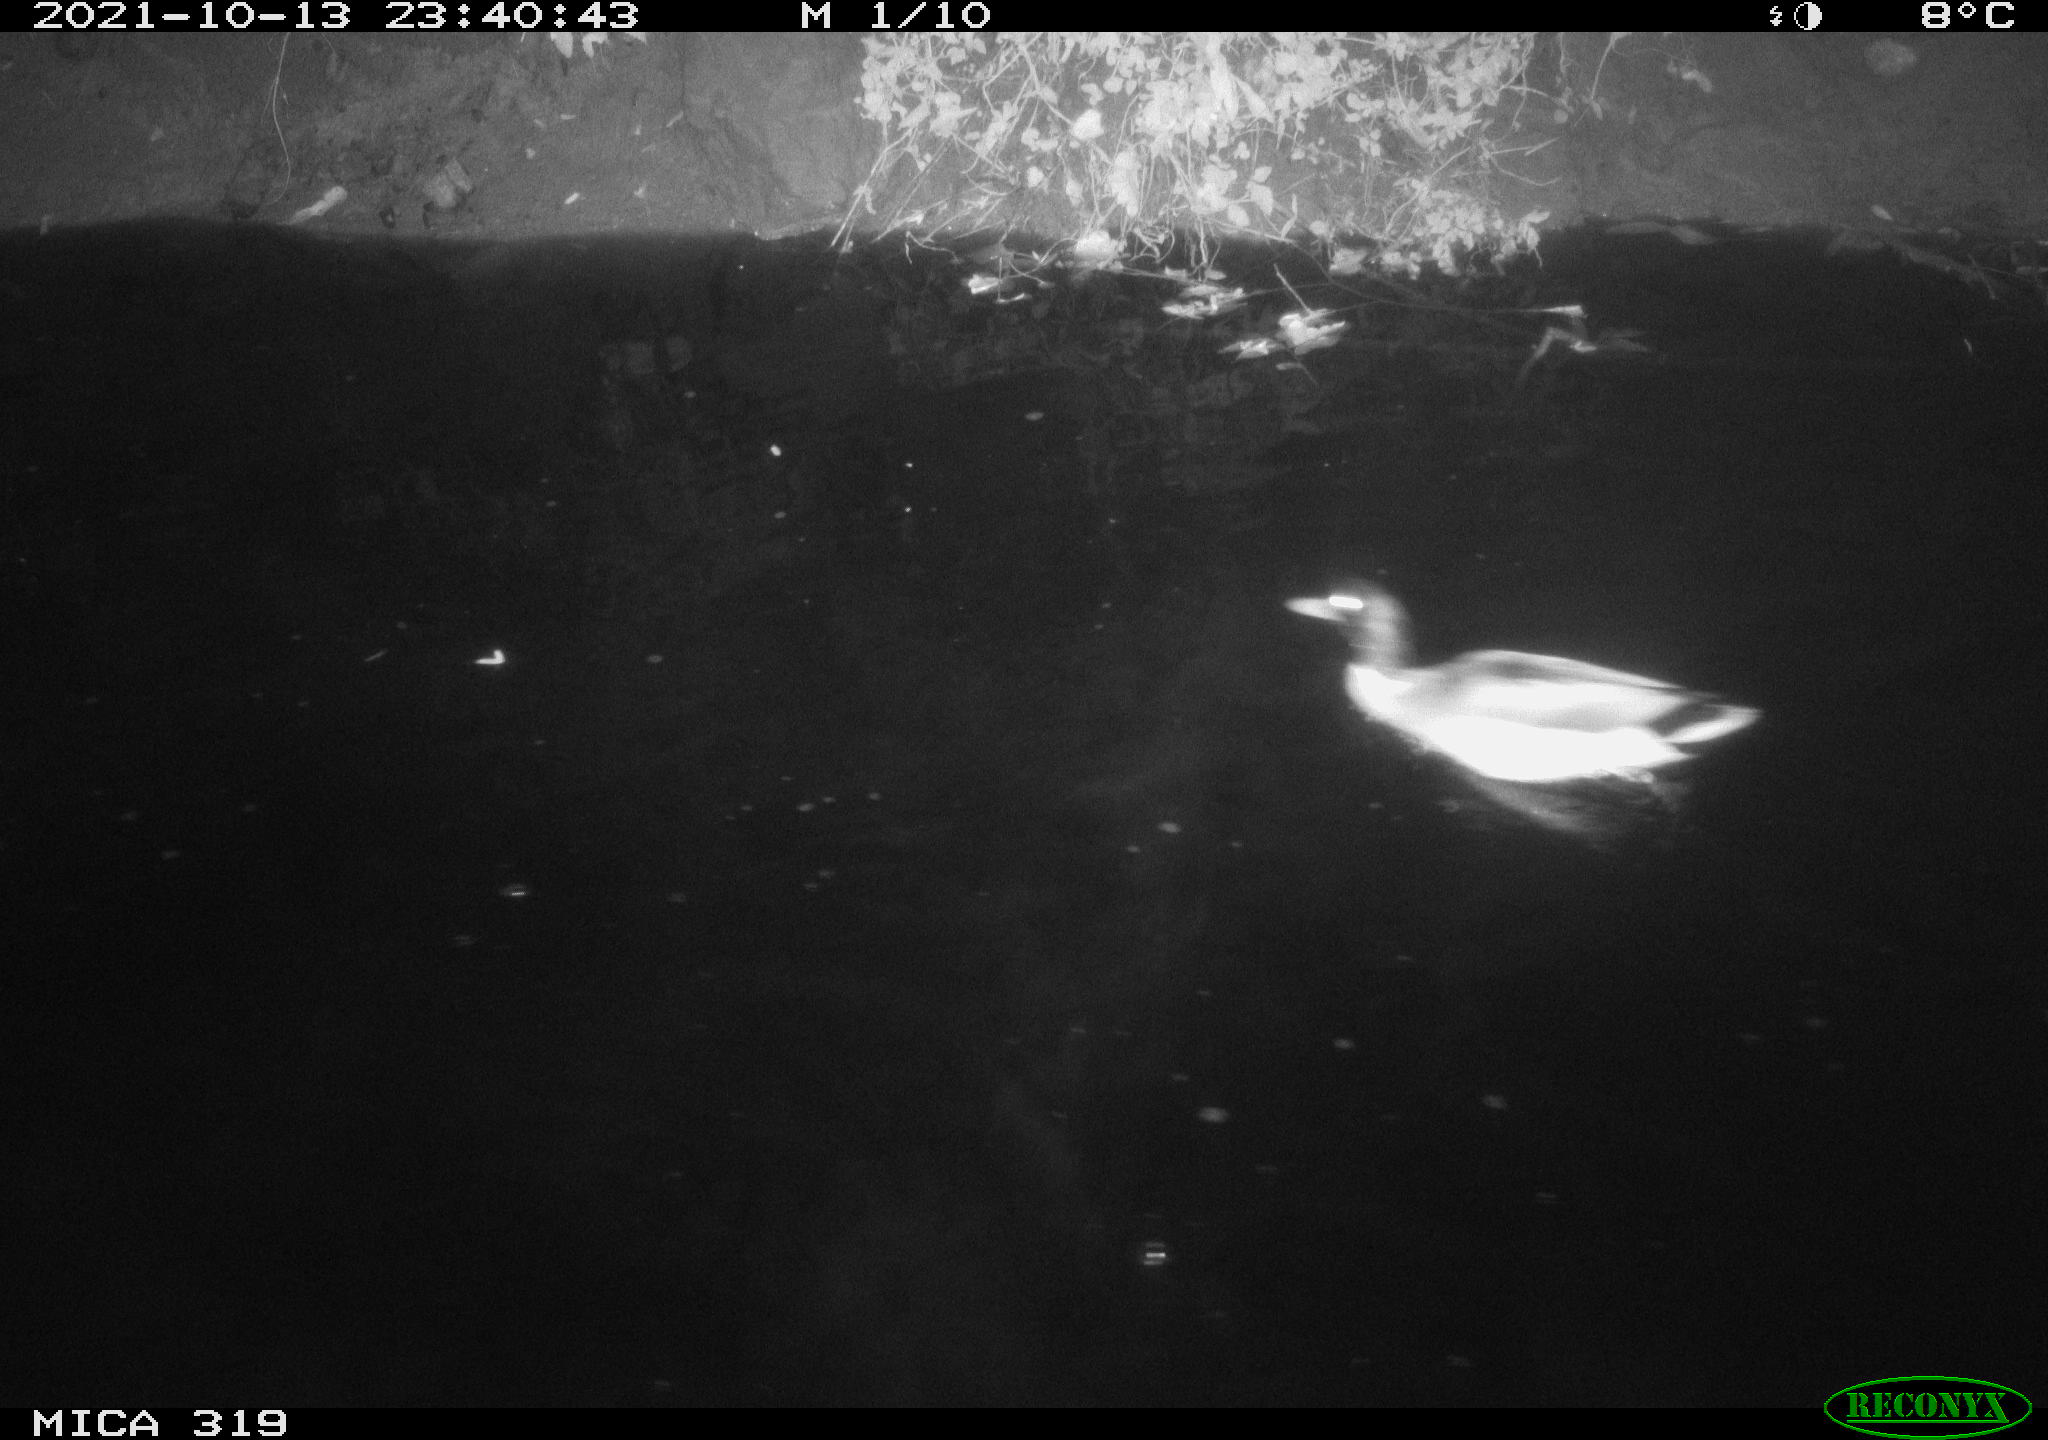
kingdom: Animalia
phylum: Chordata
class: Aves
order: Anseriformes
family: Anatidae
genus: Anas
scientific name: Anas platyrhynchos
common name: Mallard
